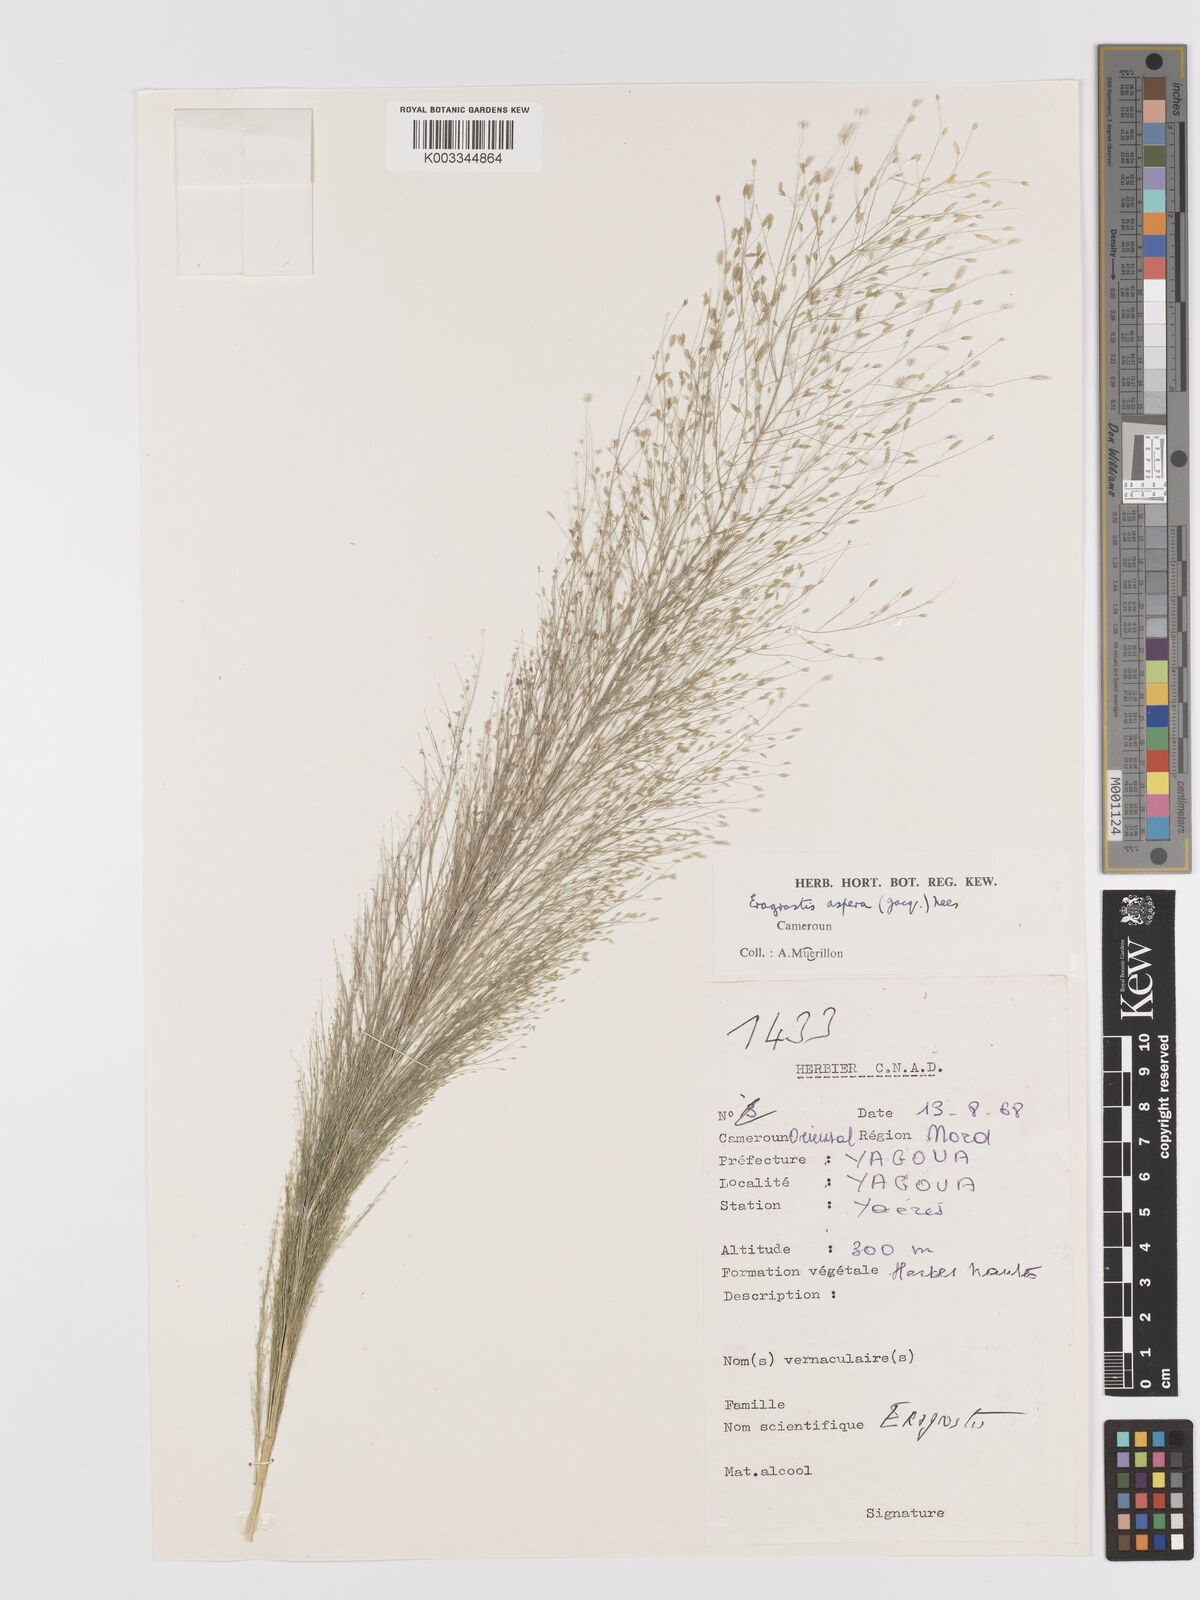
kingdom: Plantae
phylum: Tracheophyta
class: Liliopsida
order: Poales
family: Poaceae
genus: Eragrostis
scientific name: Eragrostis aspera
